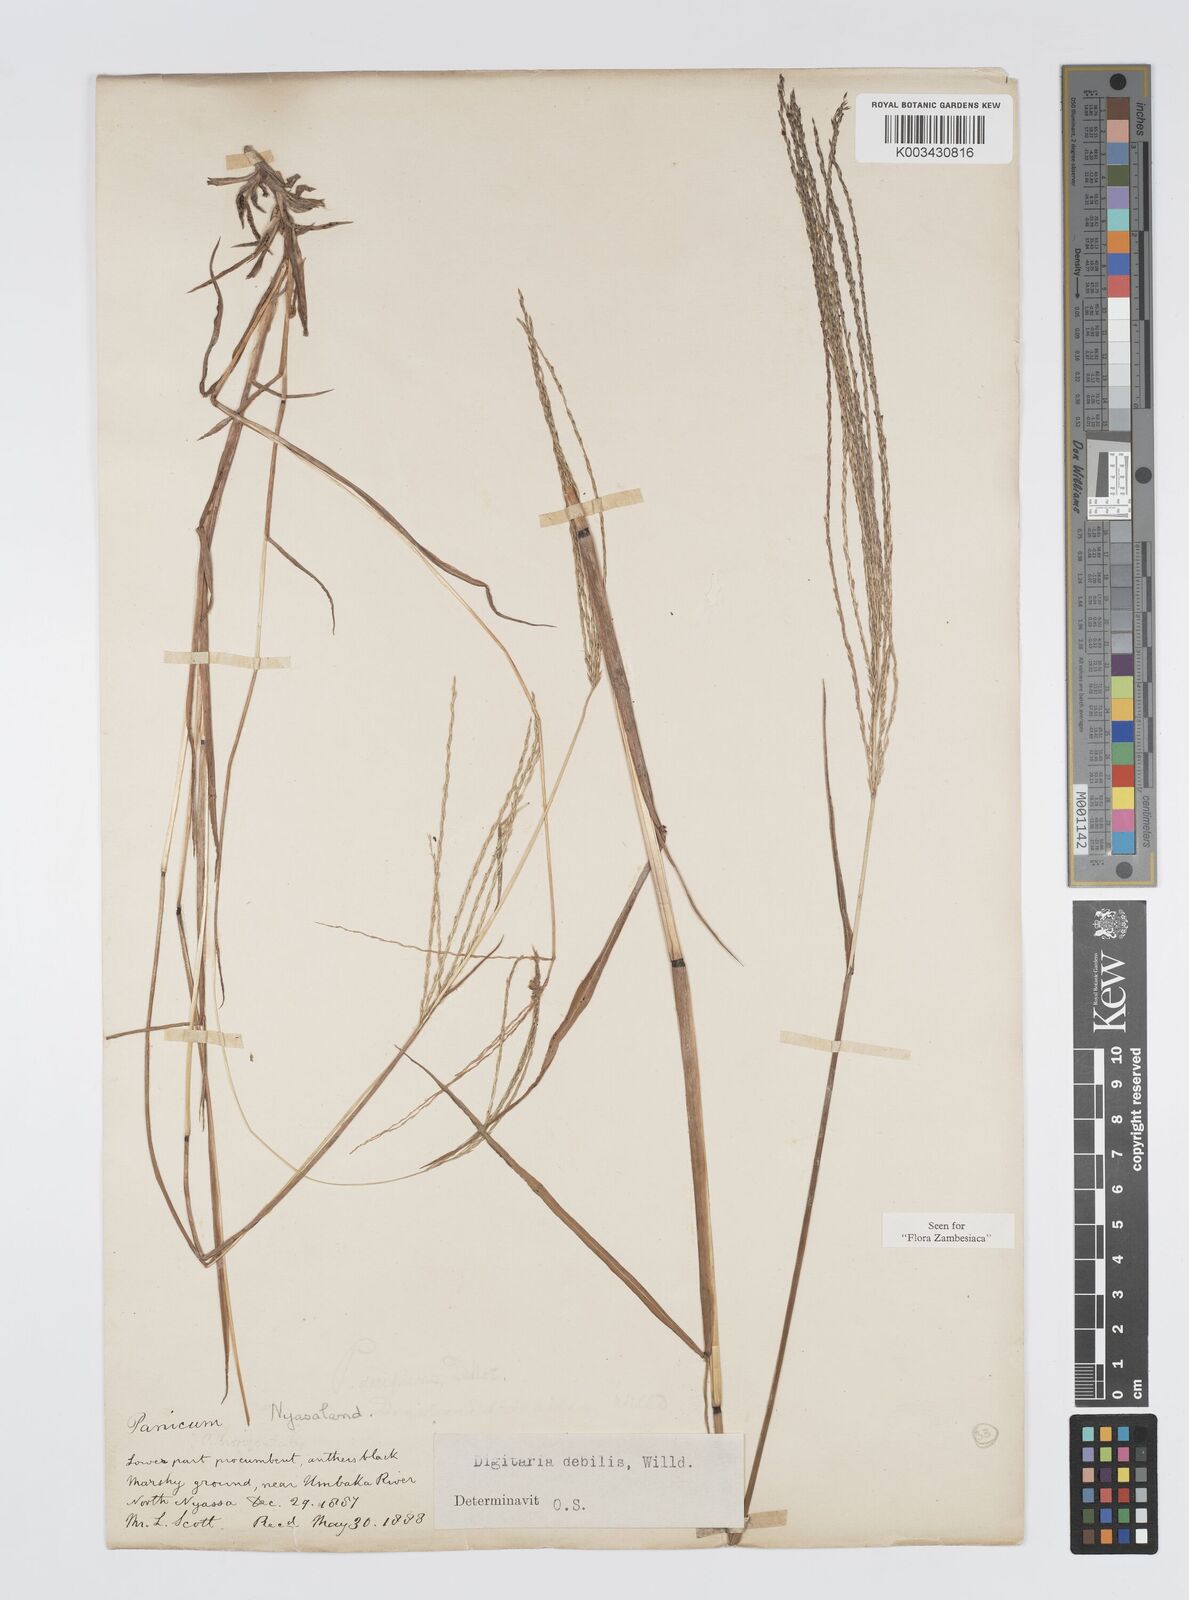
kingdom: Plantae
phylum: Tracheophyta
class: Liliopsida
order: Poales
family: Poaceae
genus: Digitaria
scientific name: Digitaria debilis
